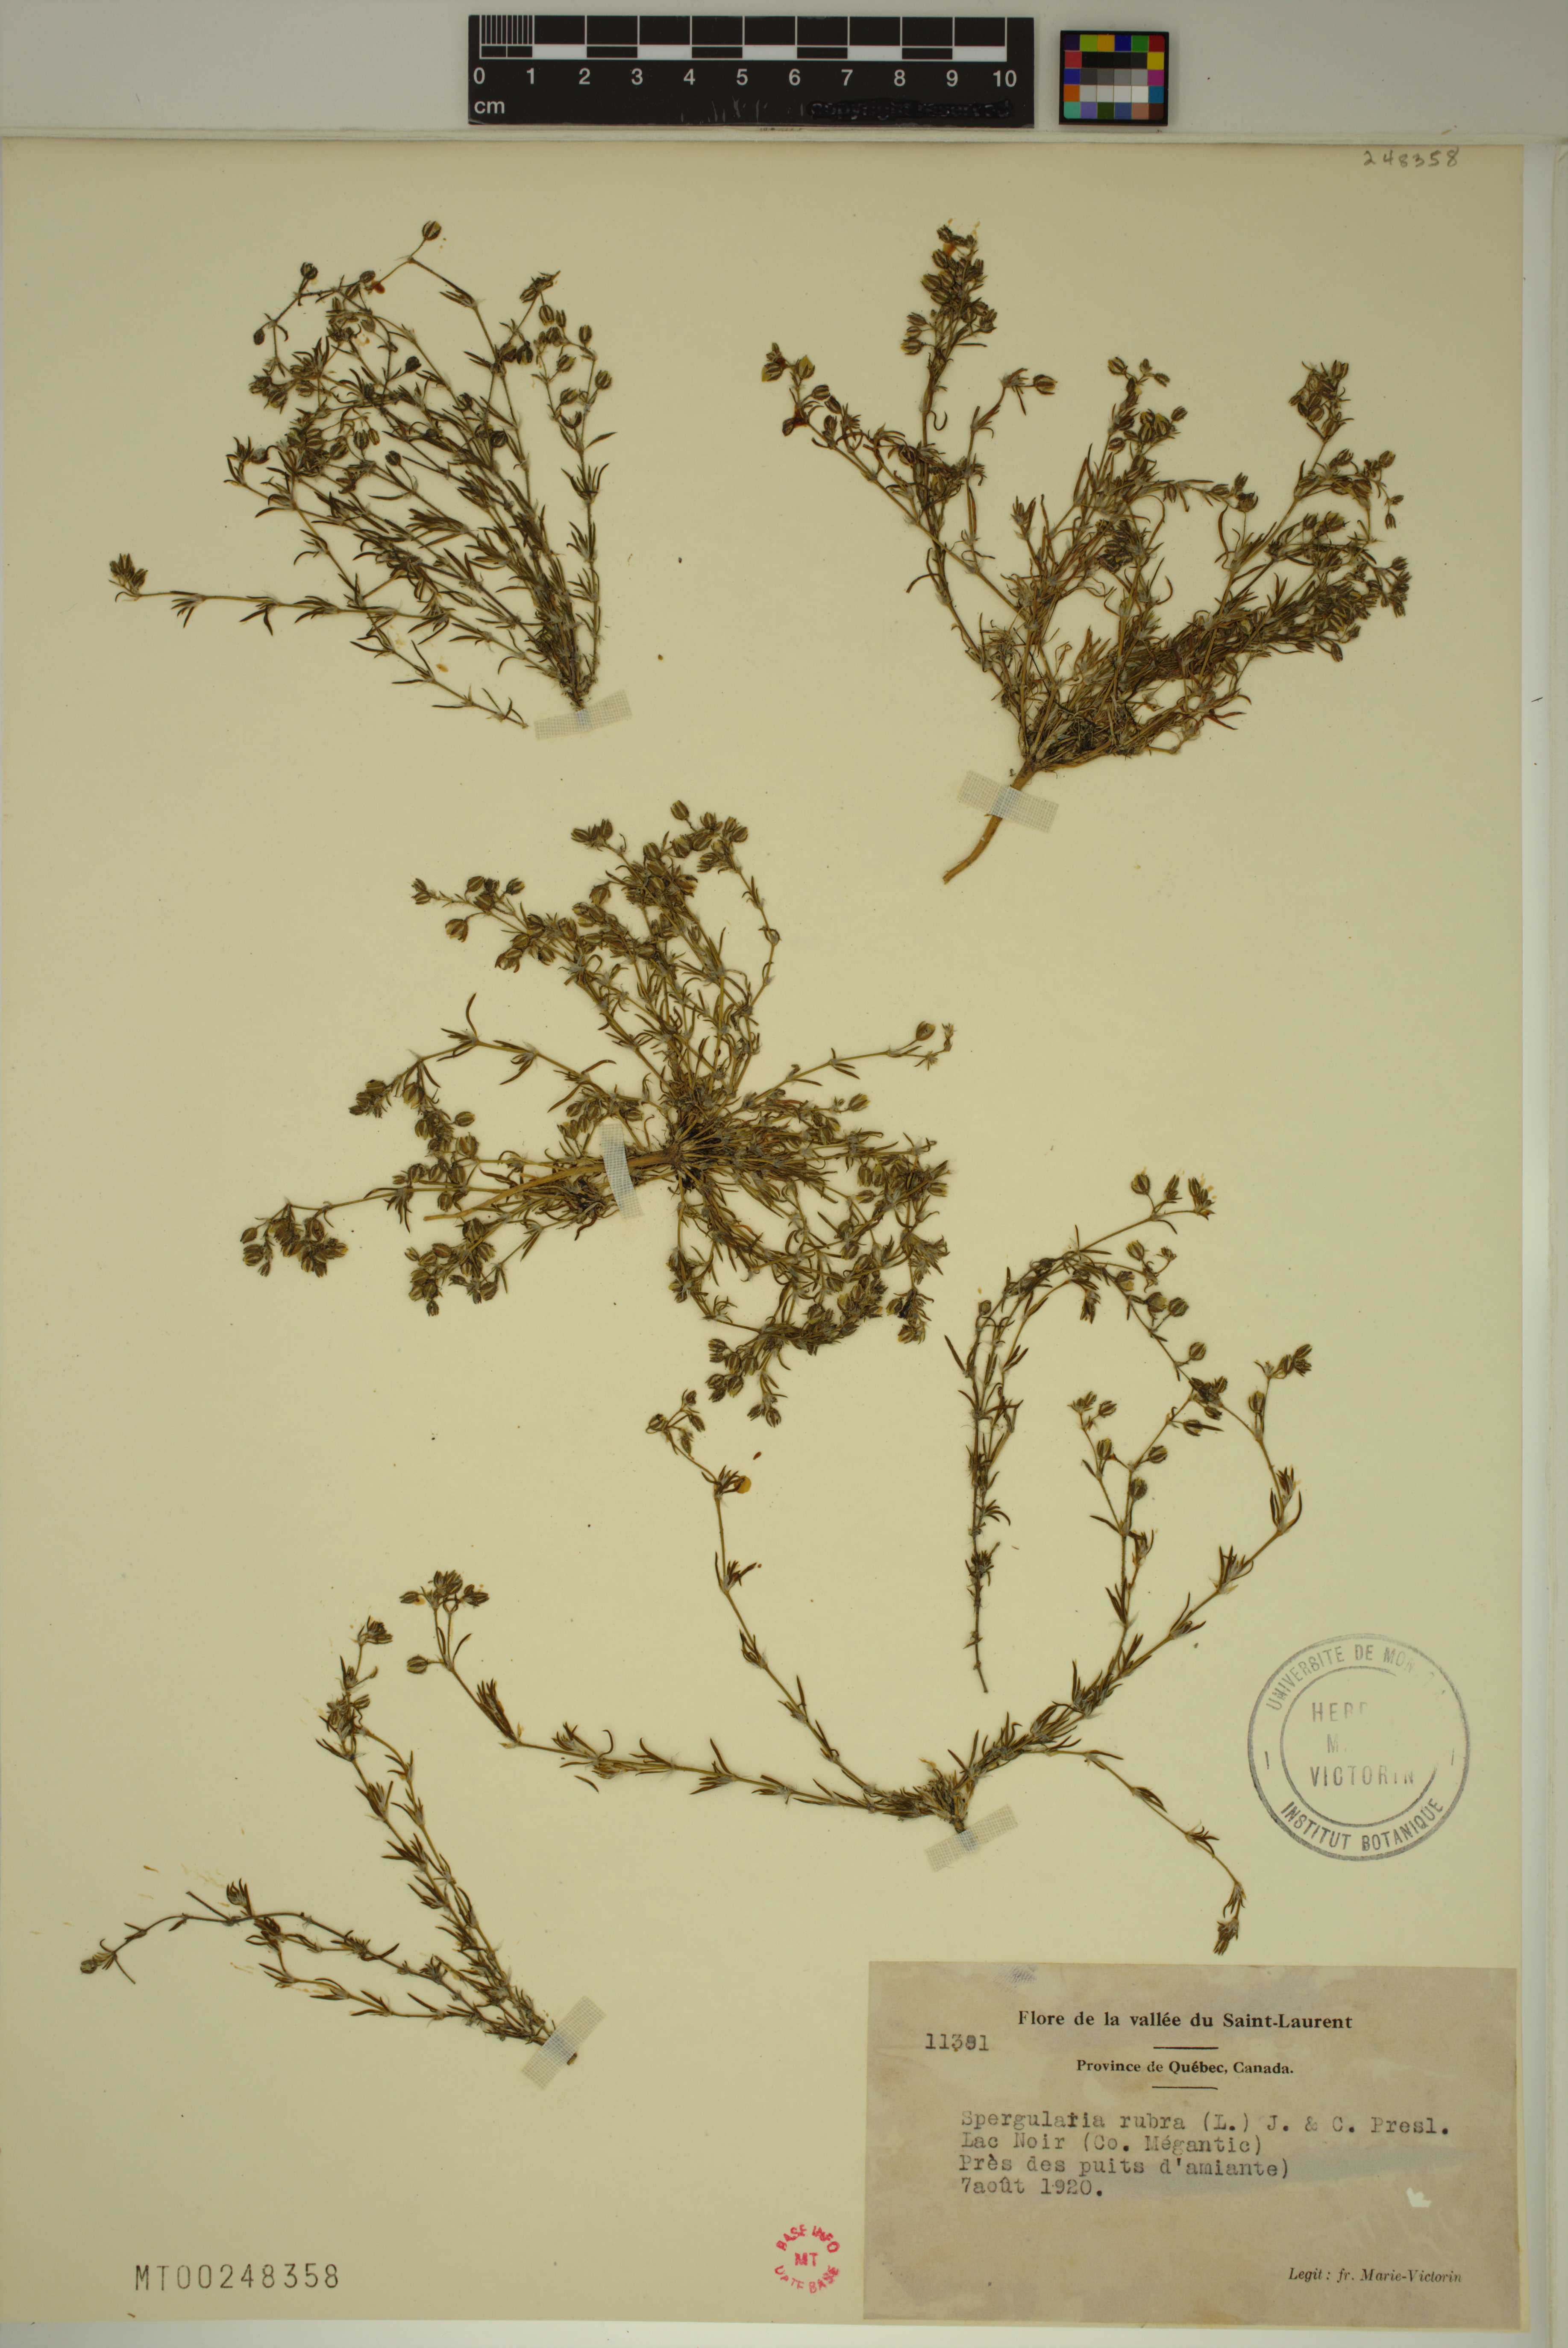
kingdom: Plantae
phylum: Tracheophyta
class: Magnoliopsida
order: Caryophyllales
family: Caryophyllaceae
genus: Spergularia
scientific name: Spergularia rubra
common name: Red sand-spurrey
